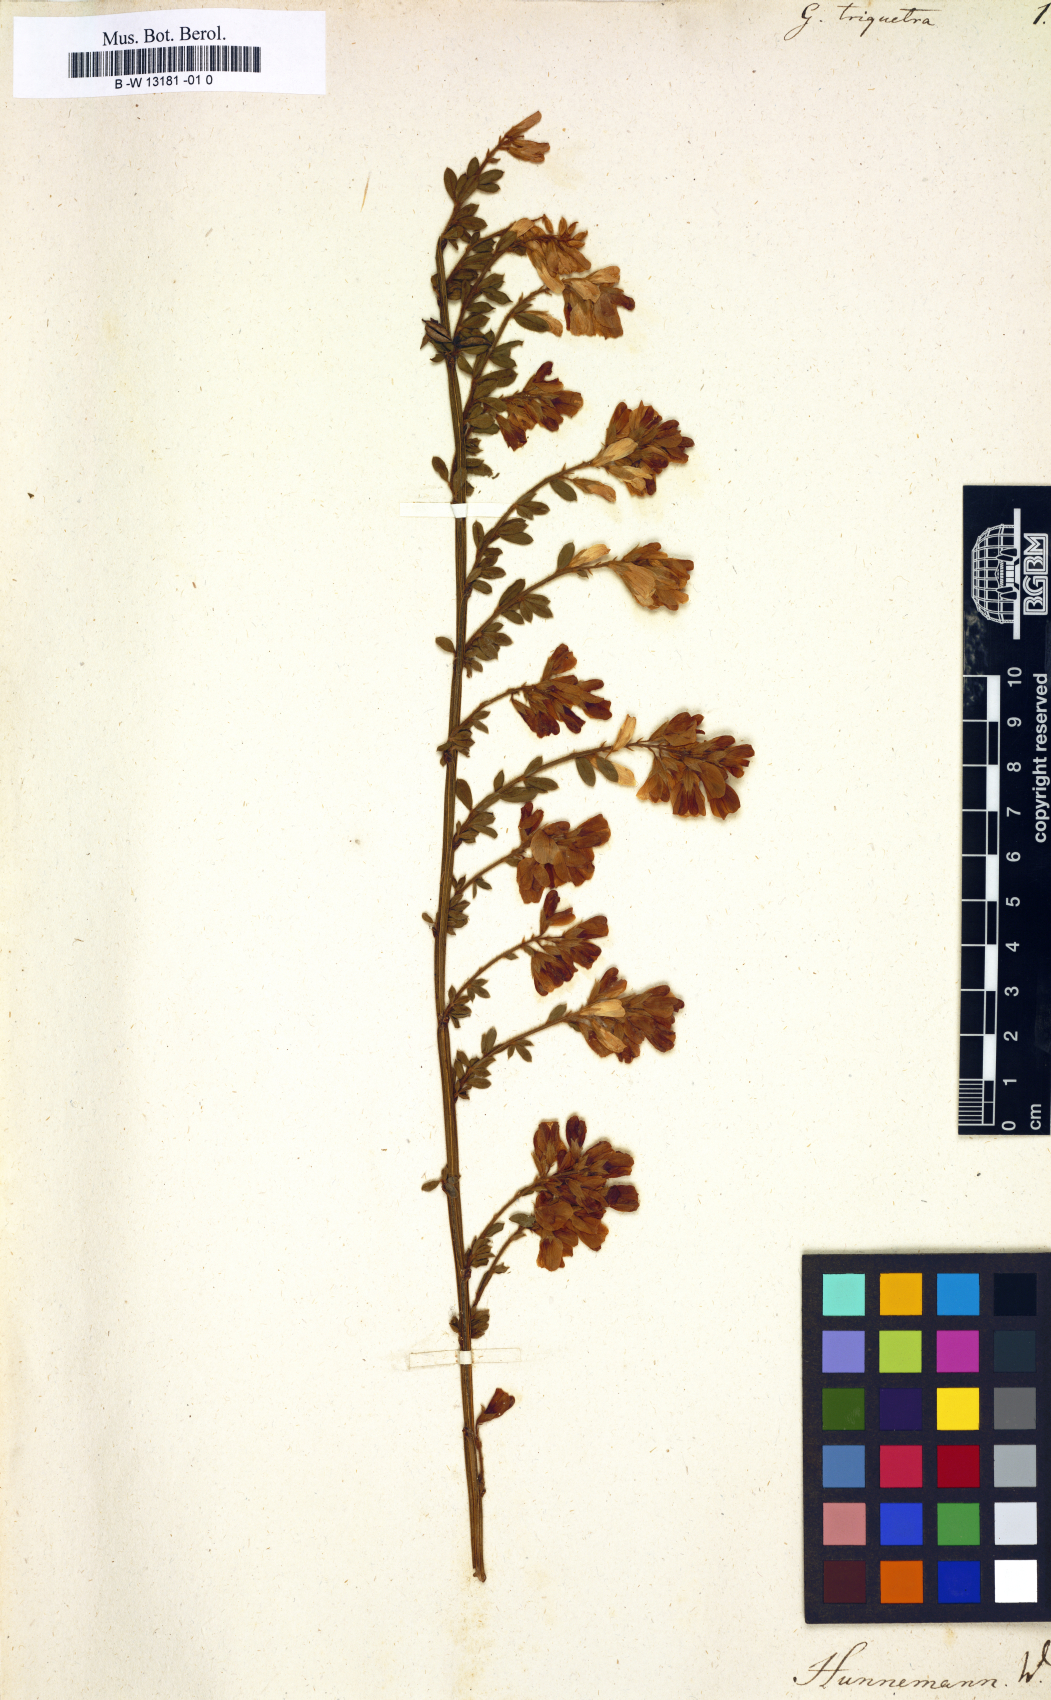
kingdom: Plantae
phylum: Tracheophyta
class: Magnoliopsida
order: Fabales
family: Fabaceae
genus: Genista
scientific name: Genista triquetra
